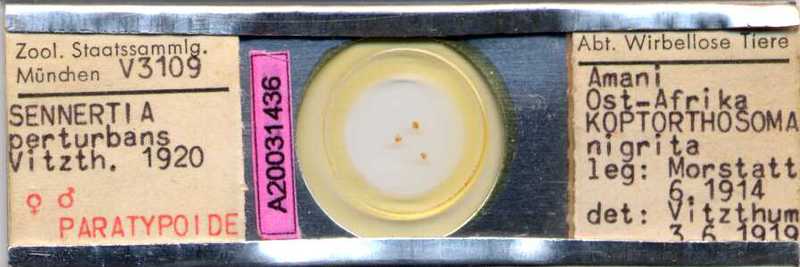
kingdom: Animalia
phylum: Arthropoda
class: Arachnida
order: Mesostigmata
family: Rhinonyssidae
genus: Sternostoma
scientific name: Sternostoma technaui
